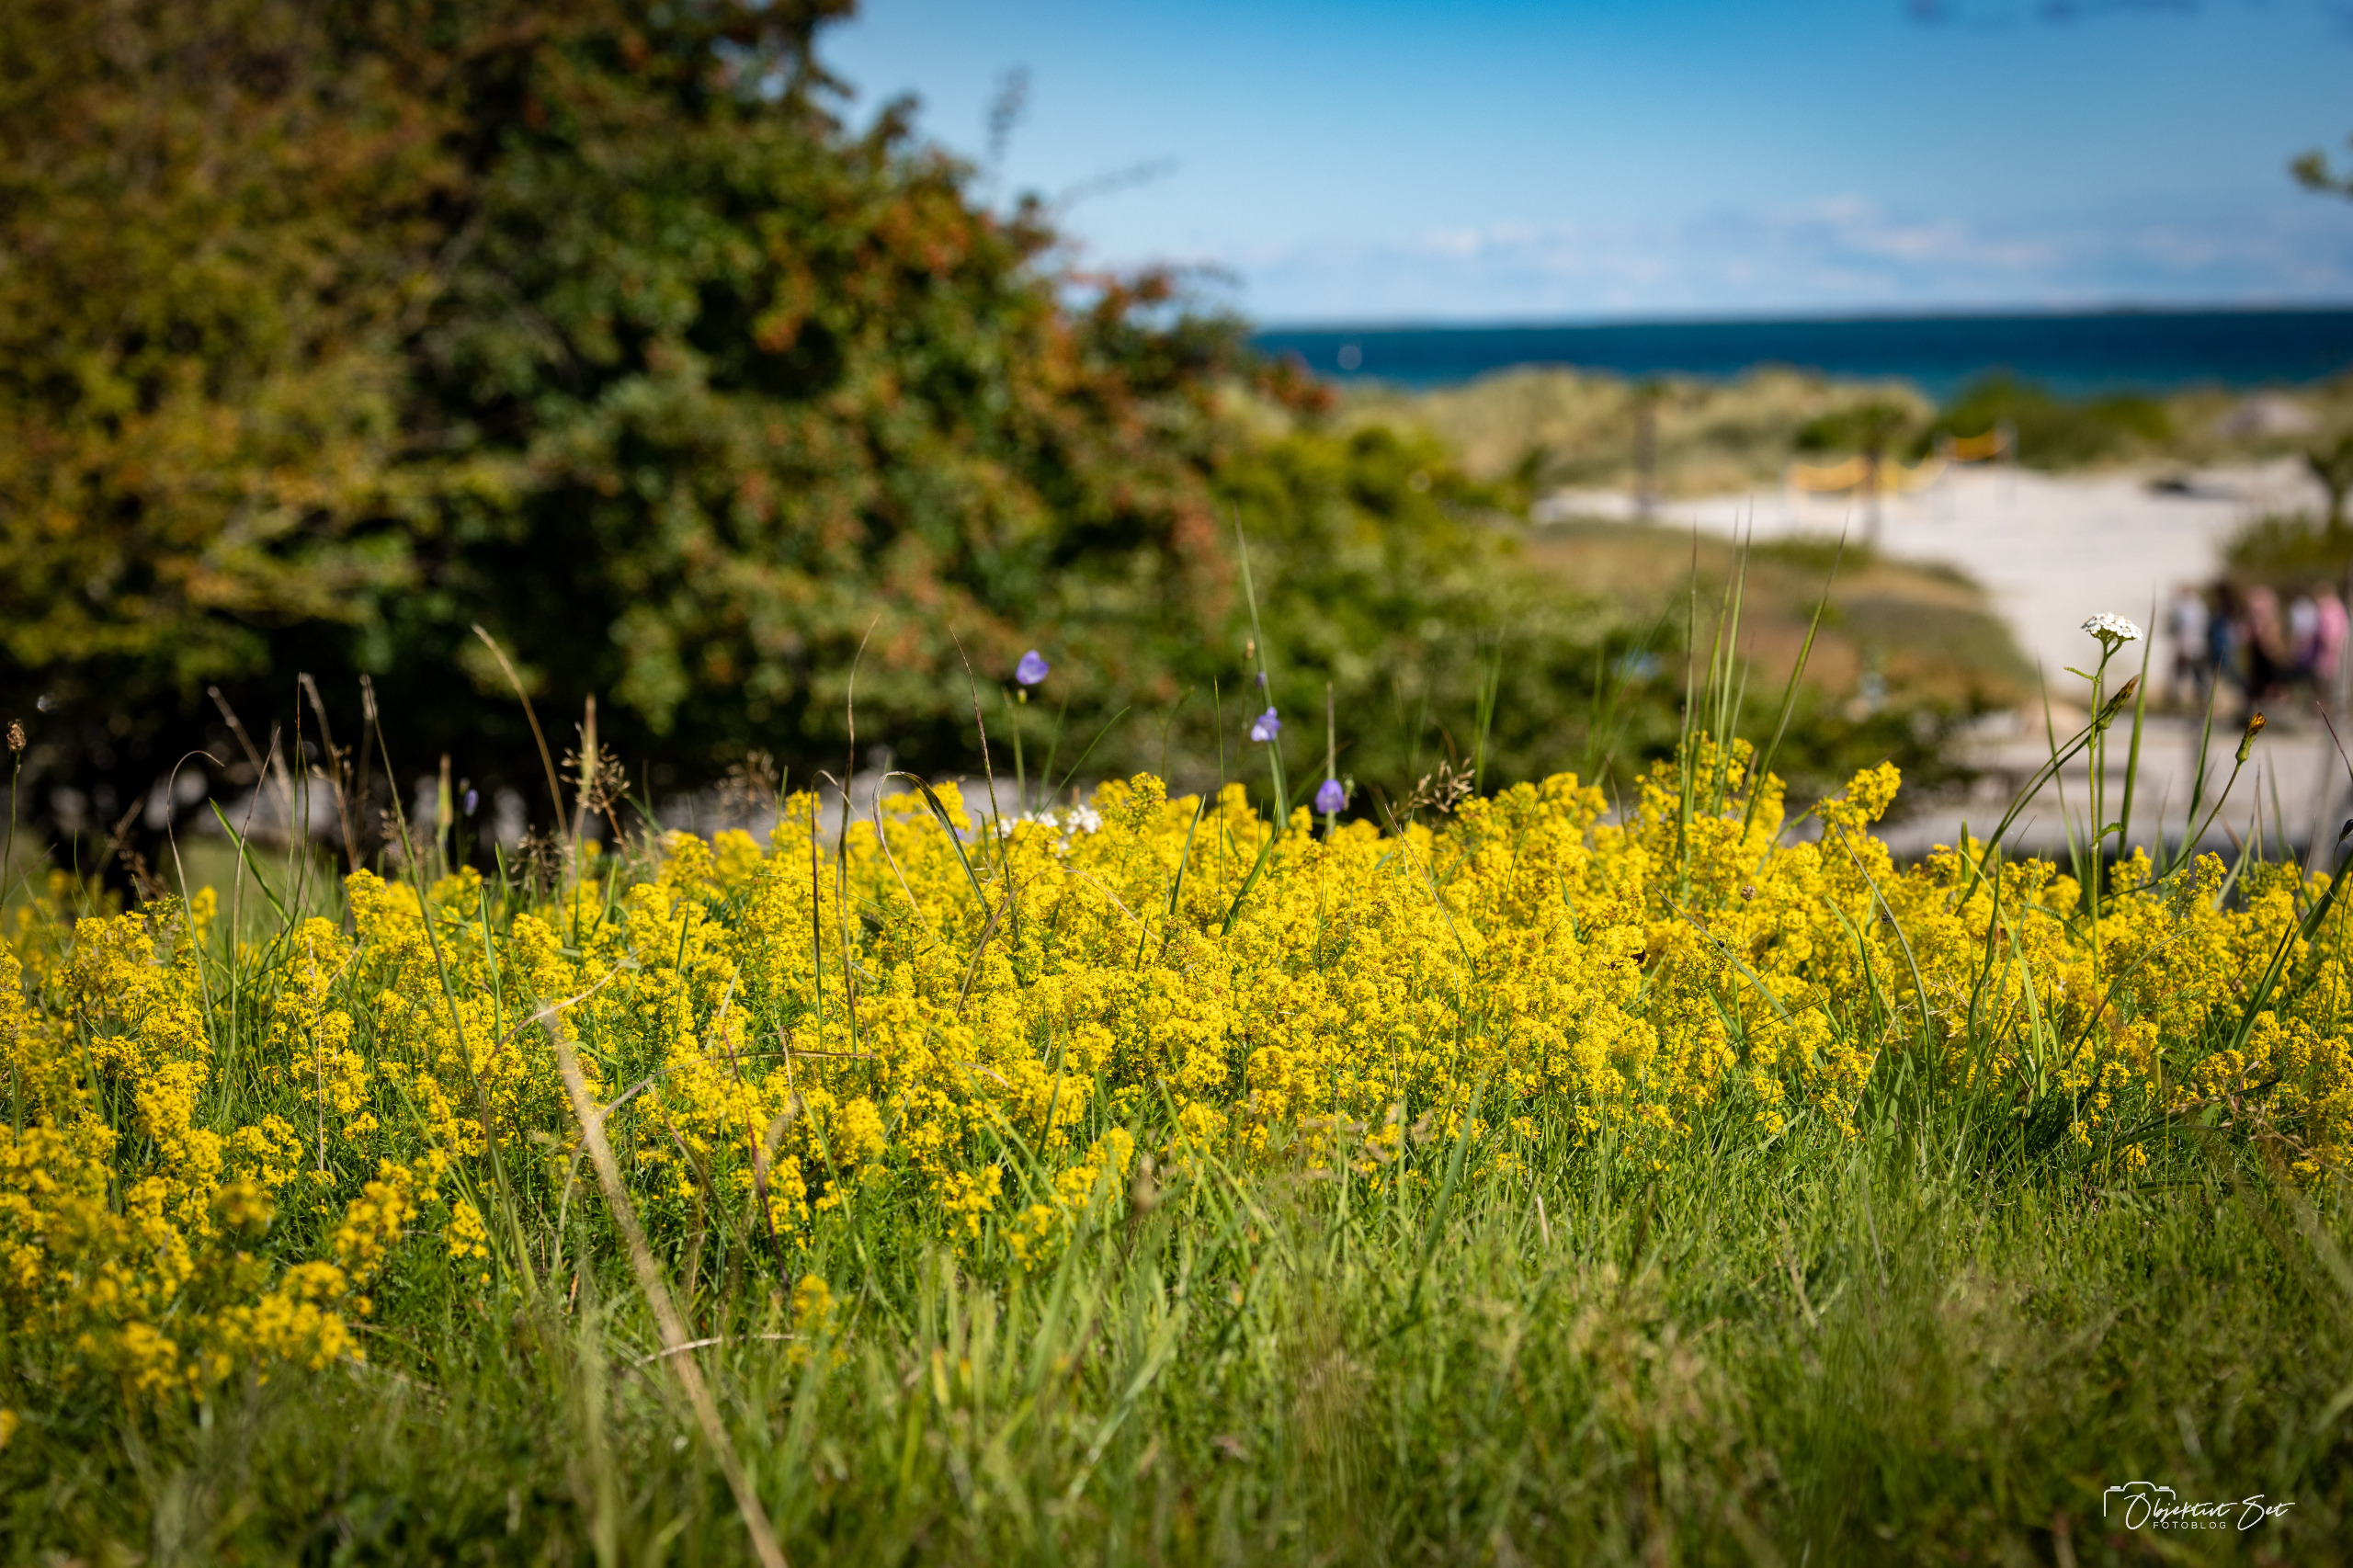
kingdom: Plantae
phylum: Tracheophyta
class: Magnoliopsida
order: Gentianales
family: Rubiaceae
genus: Galium
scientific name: Galium verum
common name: Gul snerre
